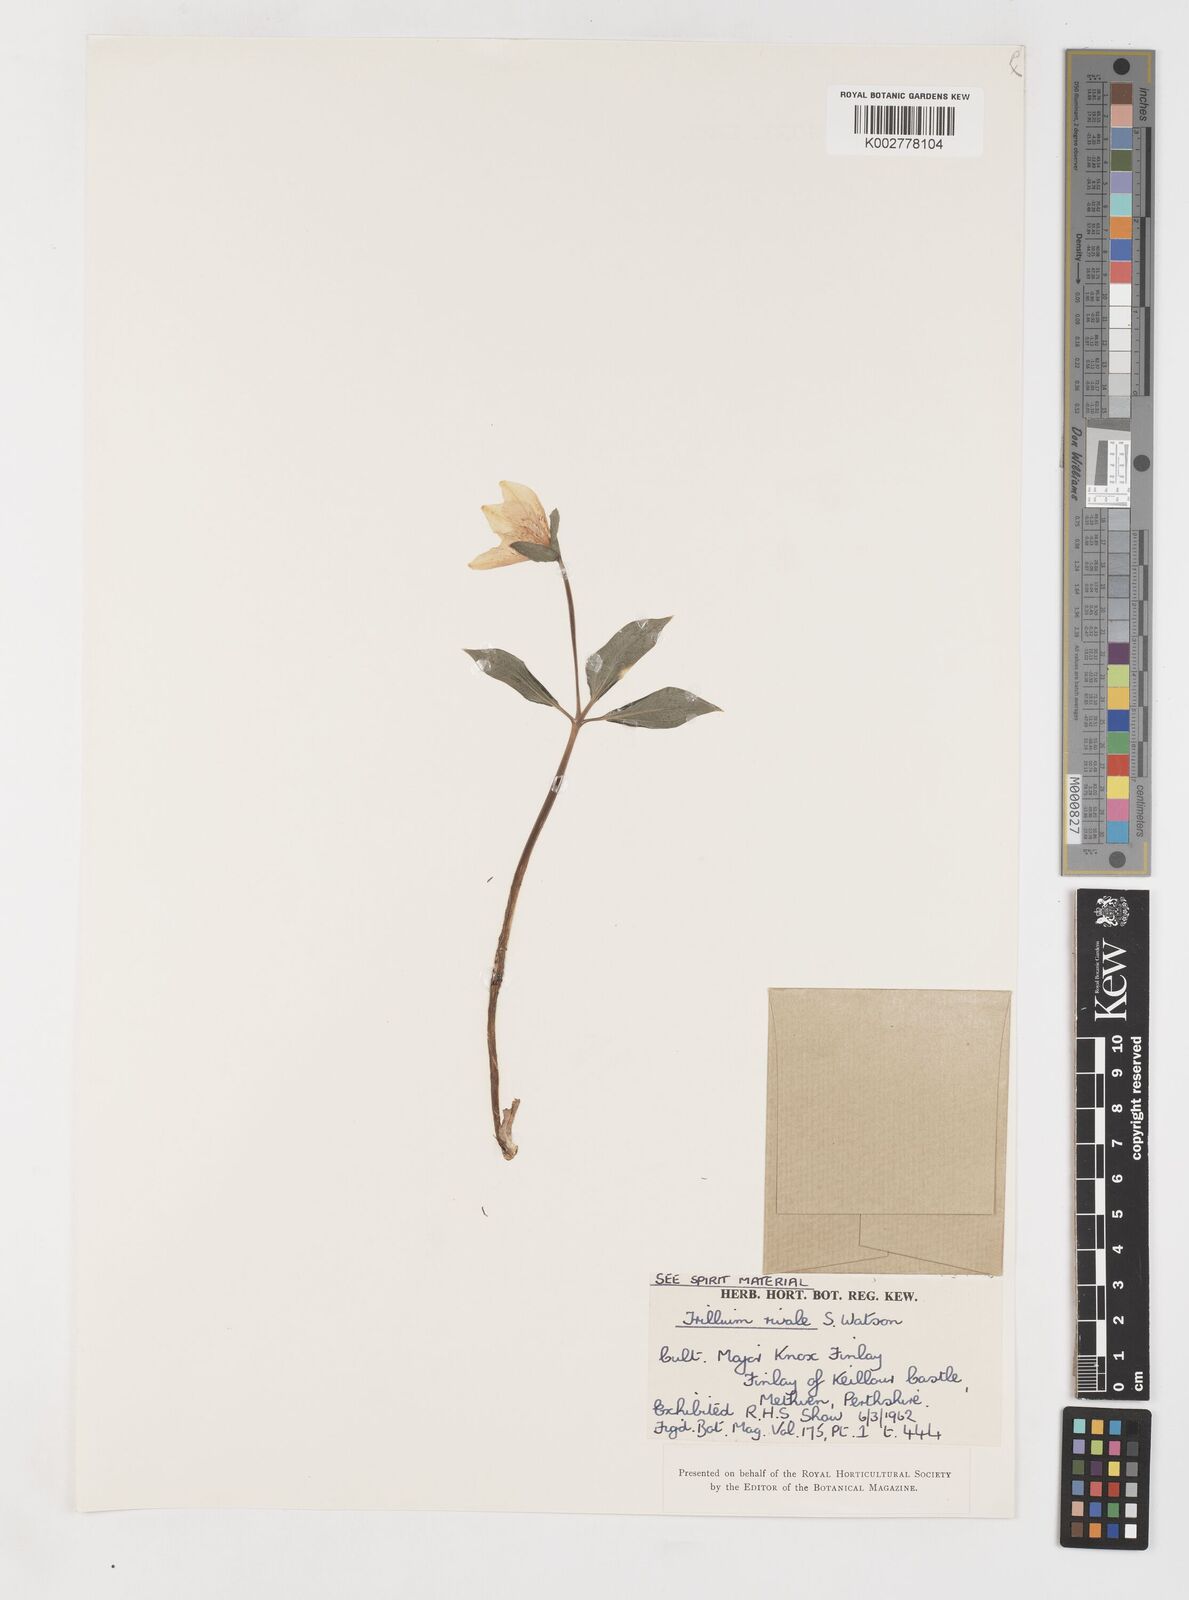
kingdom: Plantae
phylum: Tracheophyta
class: Liliopsida
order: Liliales
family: Melanthiaceae
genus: Pseudotrillium
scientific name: Pseudotrillium rivale
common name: Brook wakerobin
